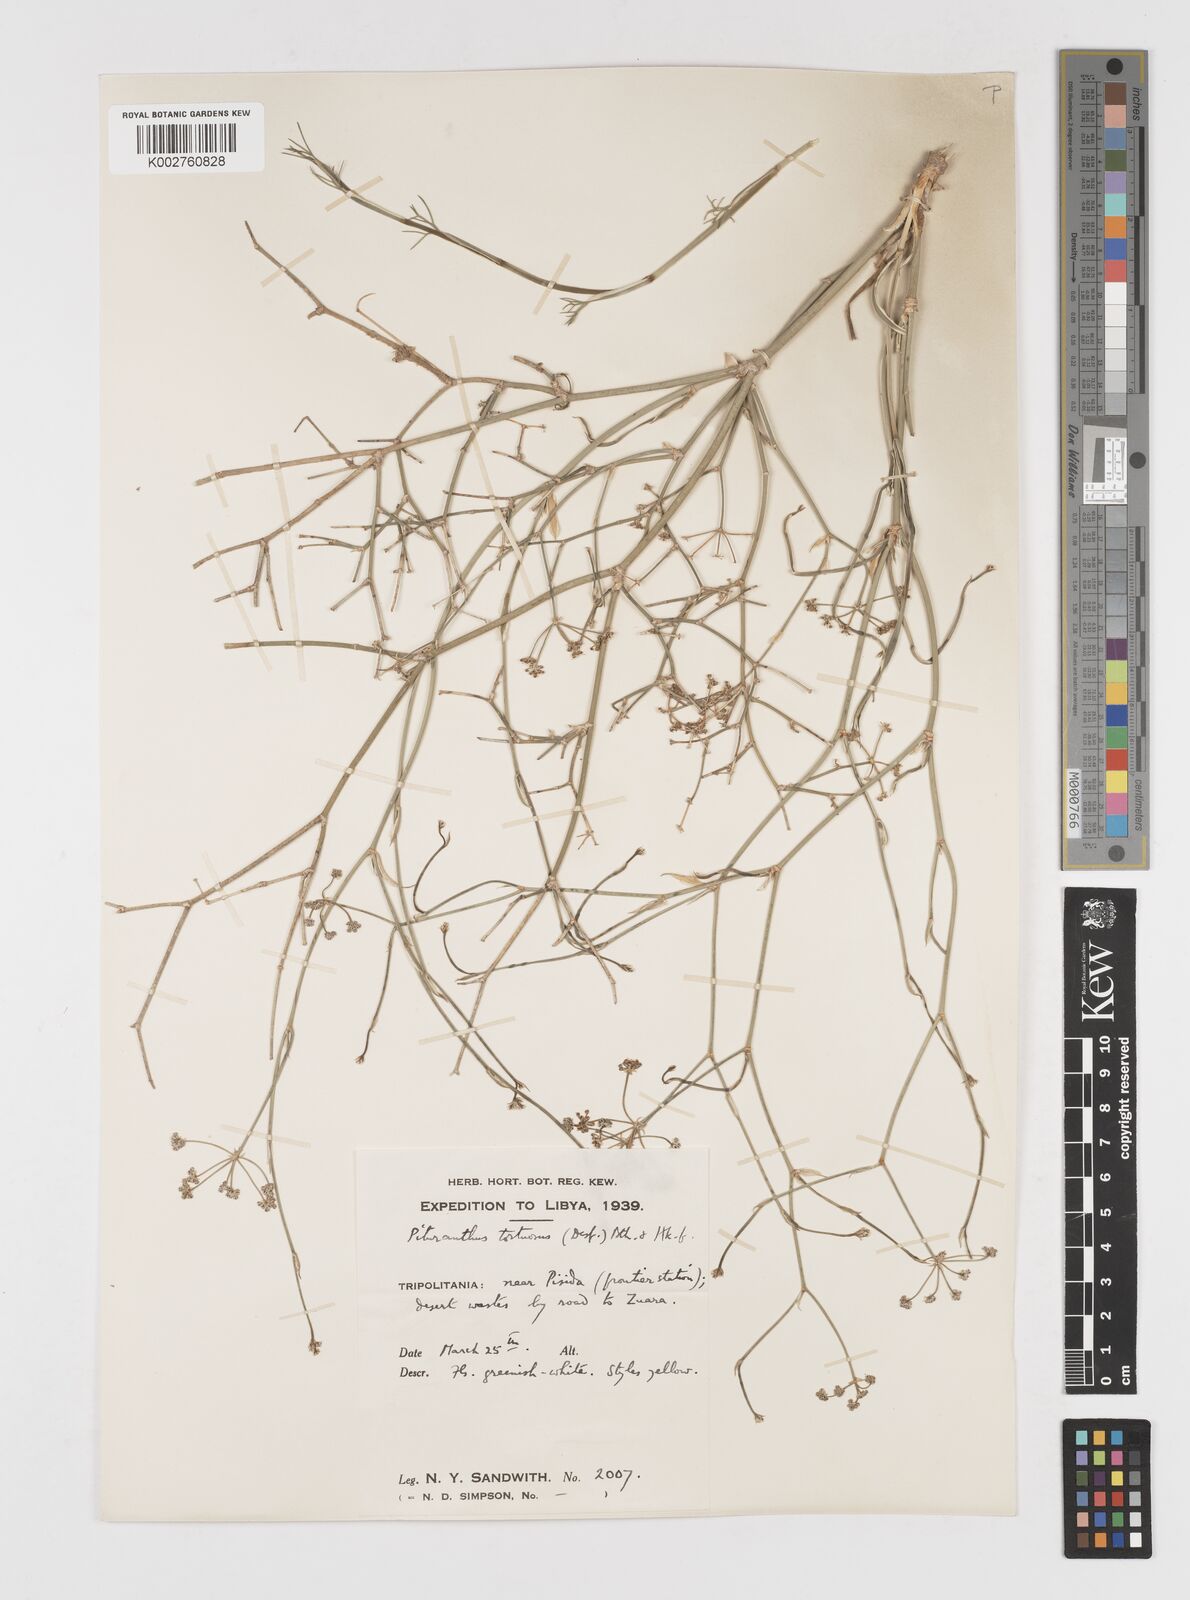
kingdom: Plantae
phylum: Tracheophyta
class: Magnoliopsida
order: Apiales
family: Apiaceae
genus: Deverra
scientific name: Deverra tortuosa
